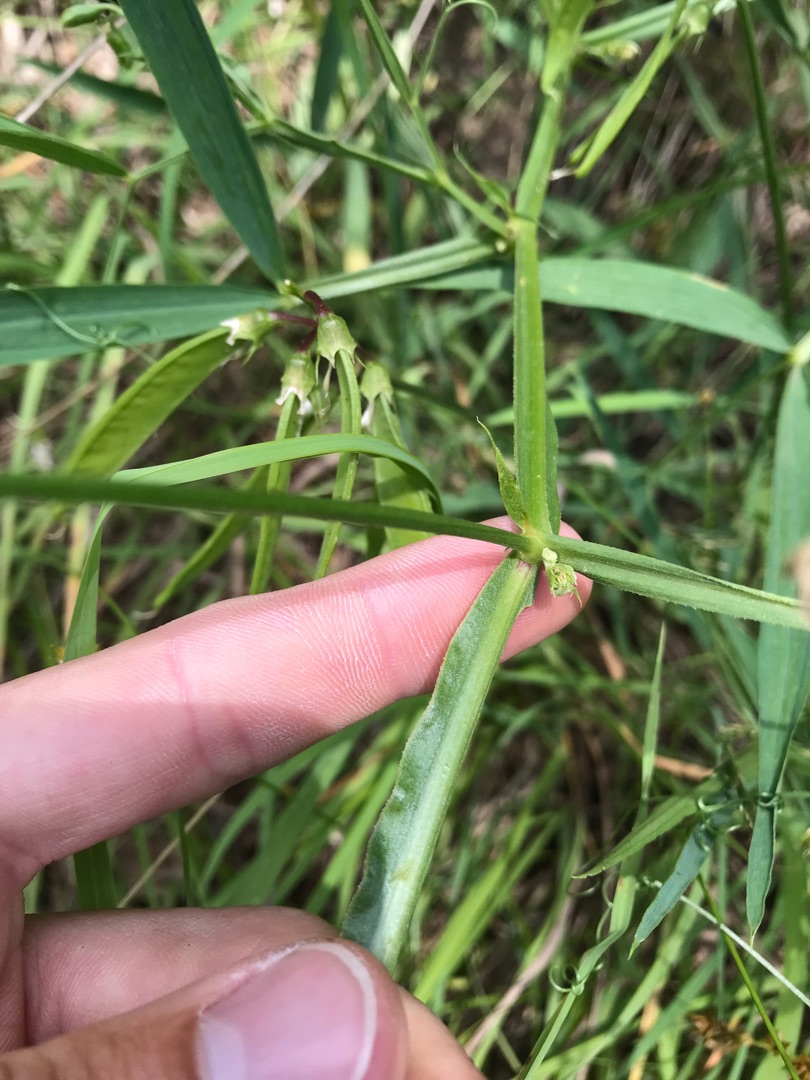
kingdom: Plantae
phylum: Tracheophyta
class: Magnoliopsida
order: Fabales
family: Fabaceae
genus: Lathyrus
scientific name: Lathyrus sylvestris
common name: Skov-fladbælg
